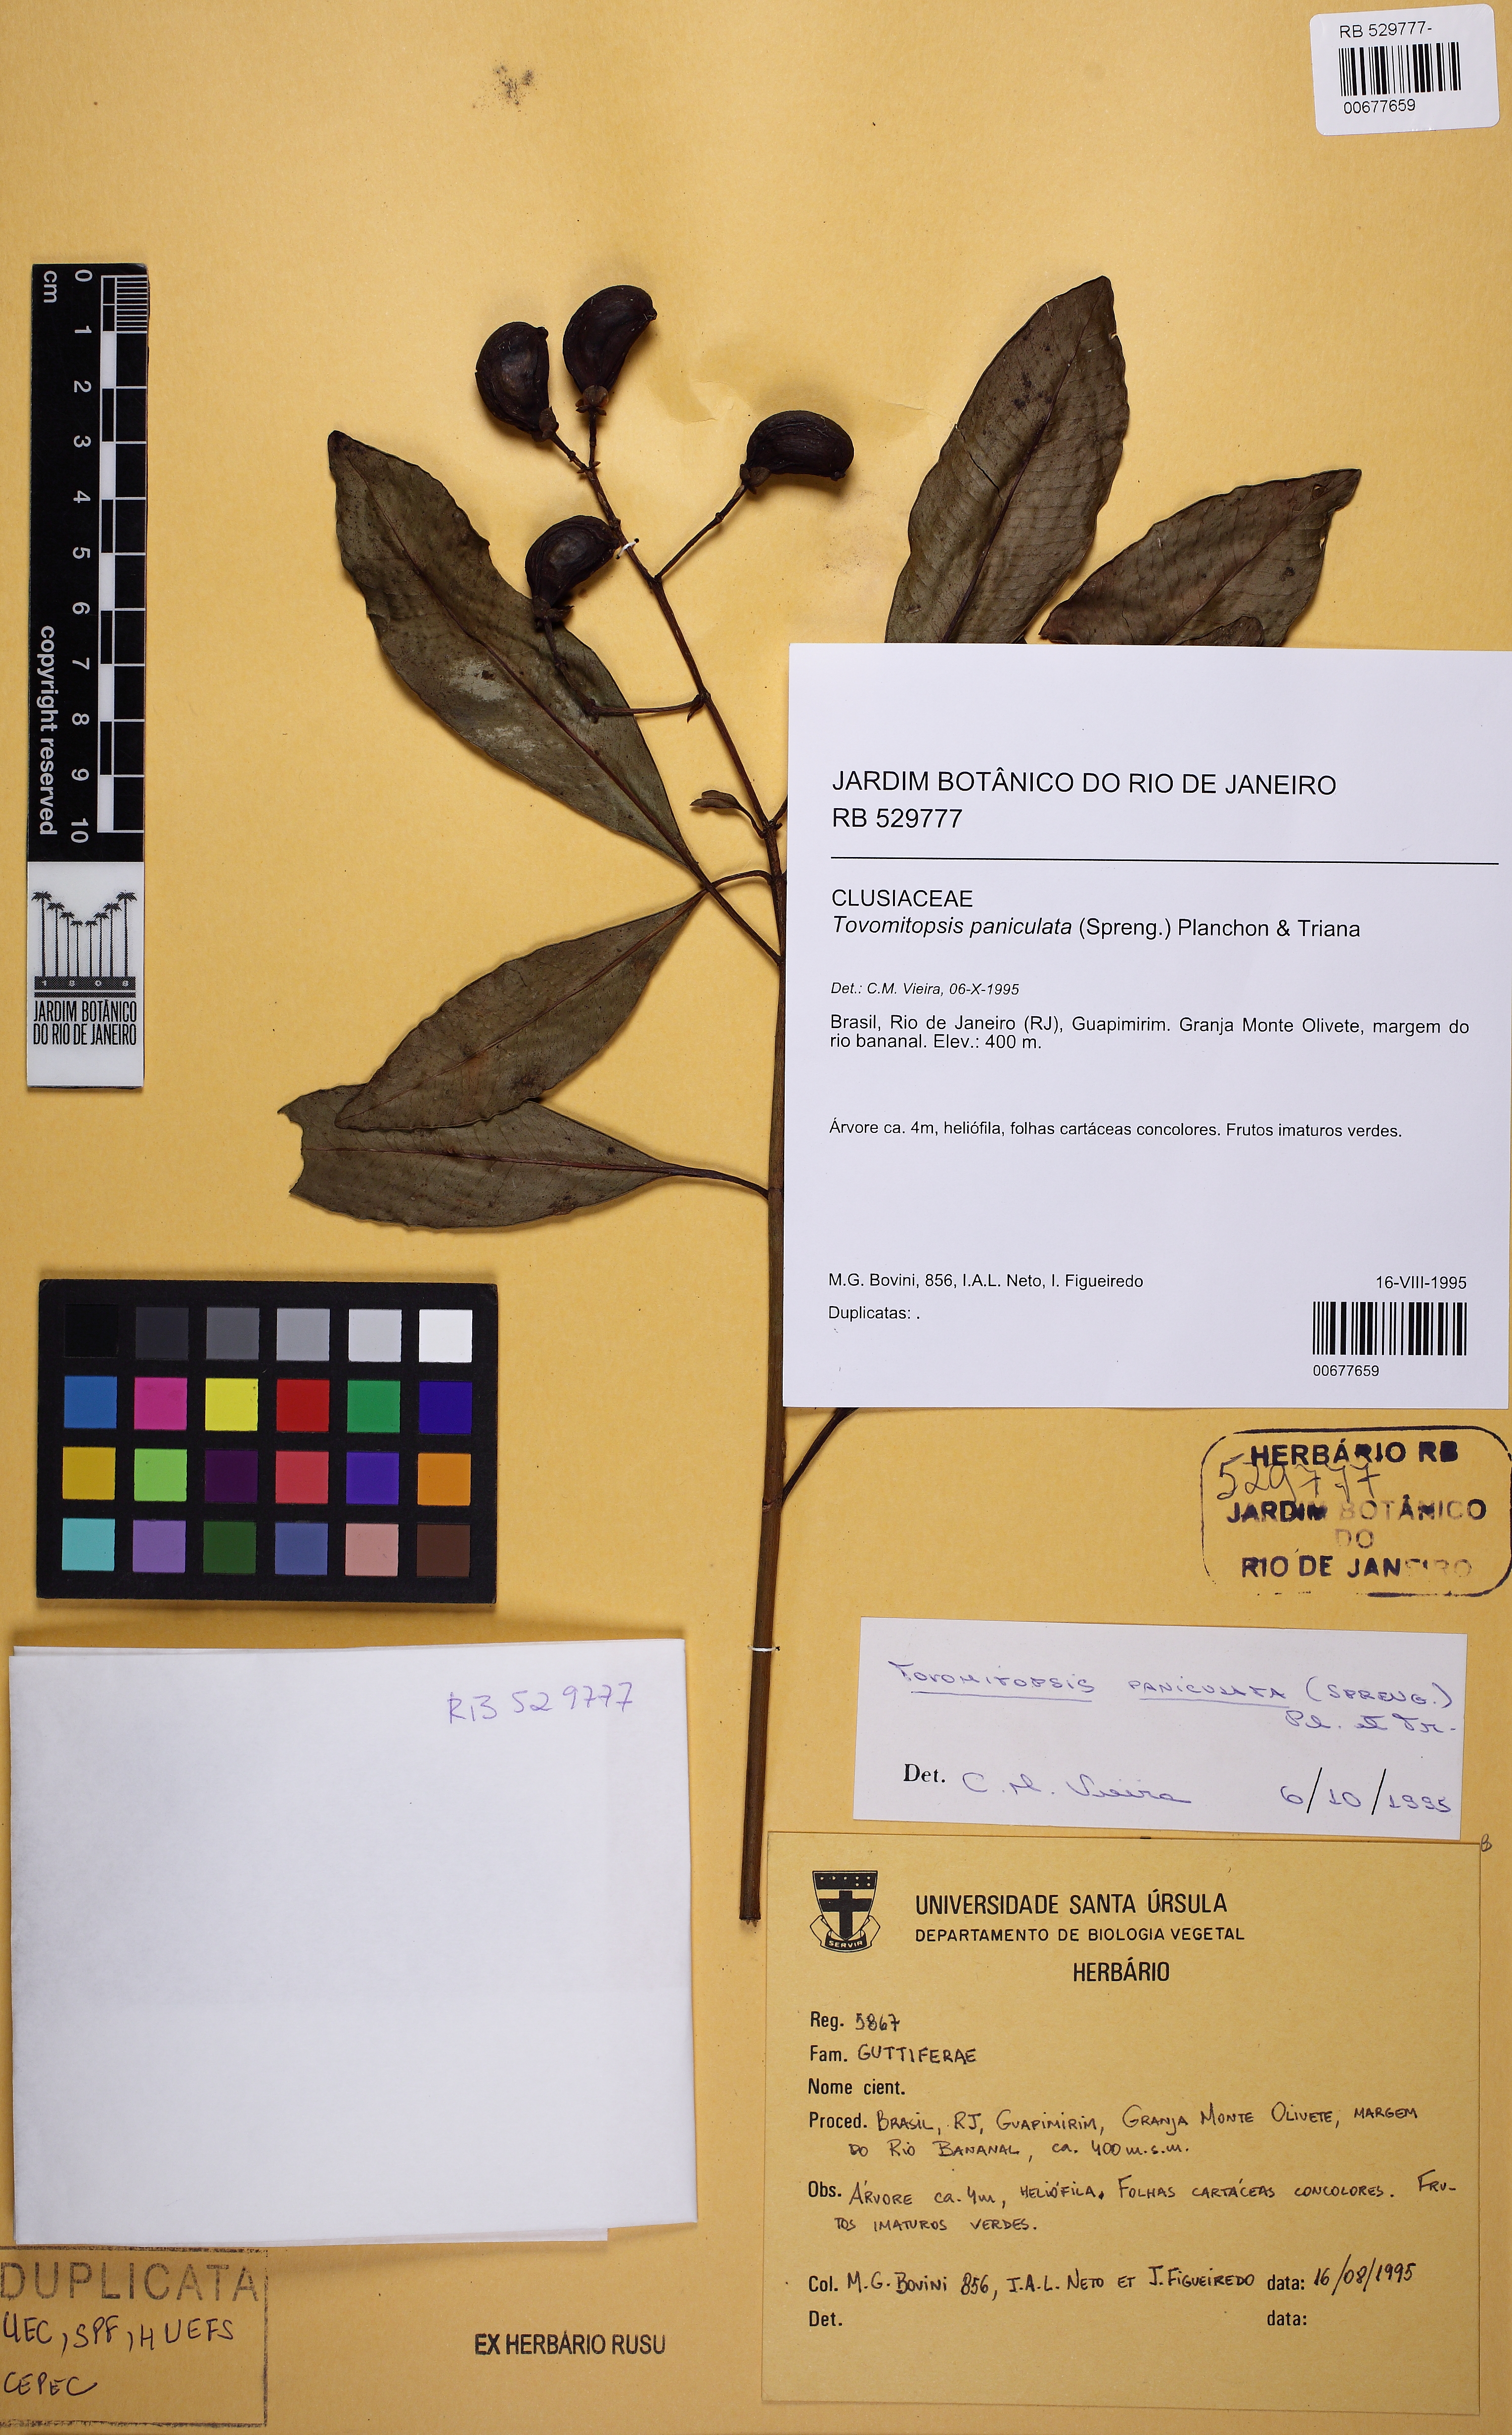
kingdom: Plantae
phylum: Tracheophyta
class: Magnoliopsida
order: Malpighiales
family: Clusiaceae
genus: Chrysochlamys
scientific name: Chrysochlamys paniculata
